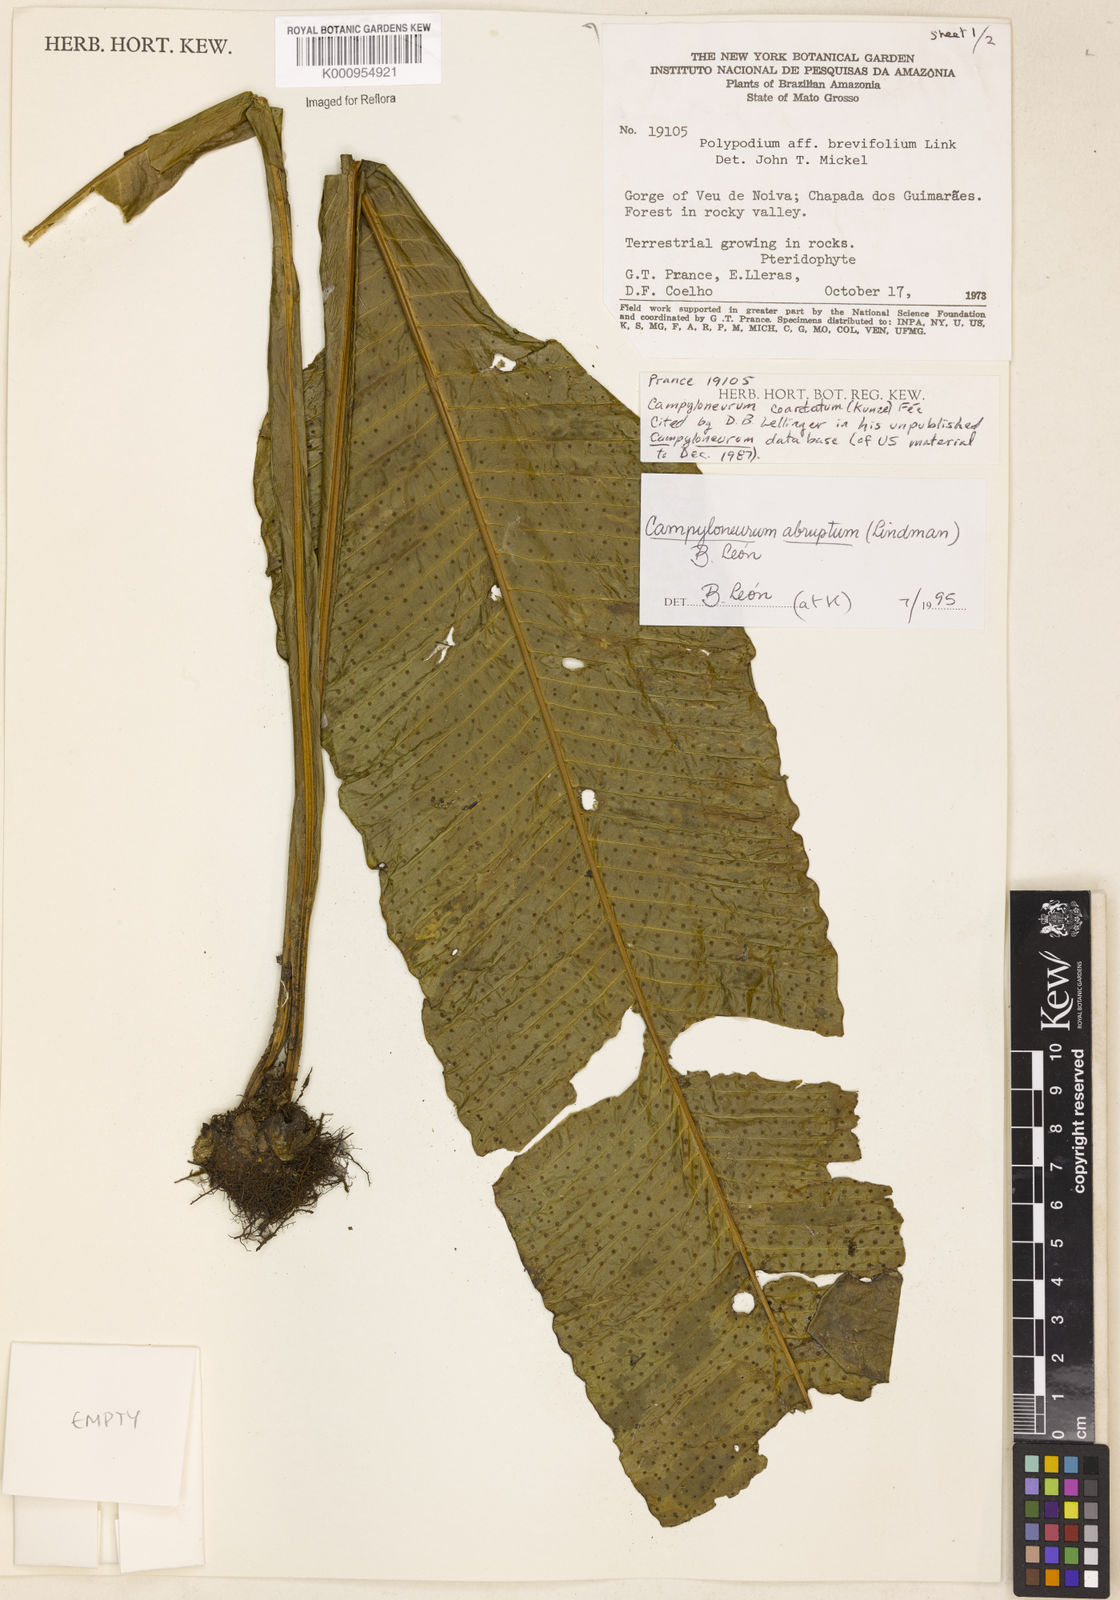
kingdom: Plantae
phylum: Tracheophyta
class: Polypodiopsida
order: Polypodiales
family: Polypodiaceae
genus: Campyloneurum
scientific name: Campyloneurum
